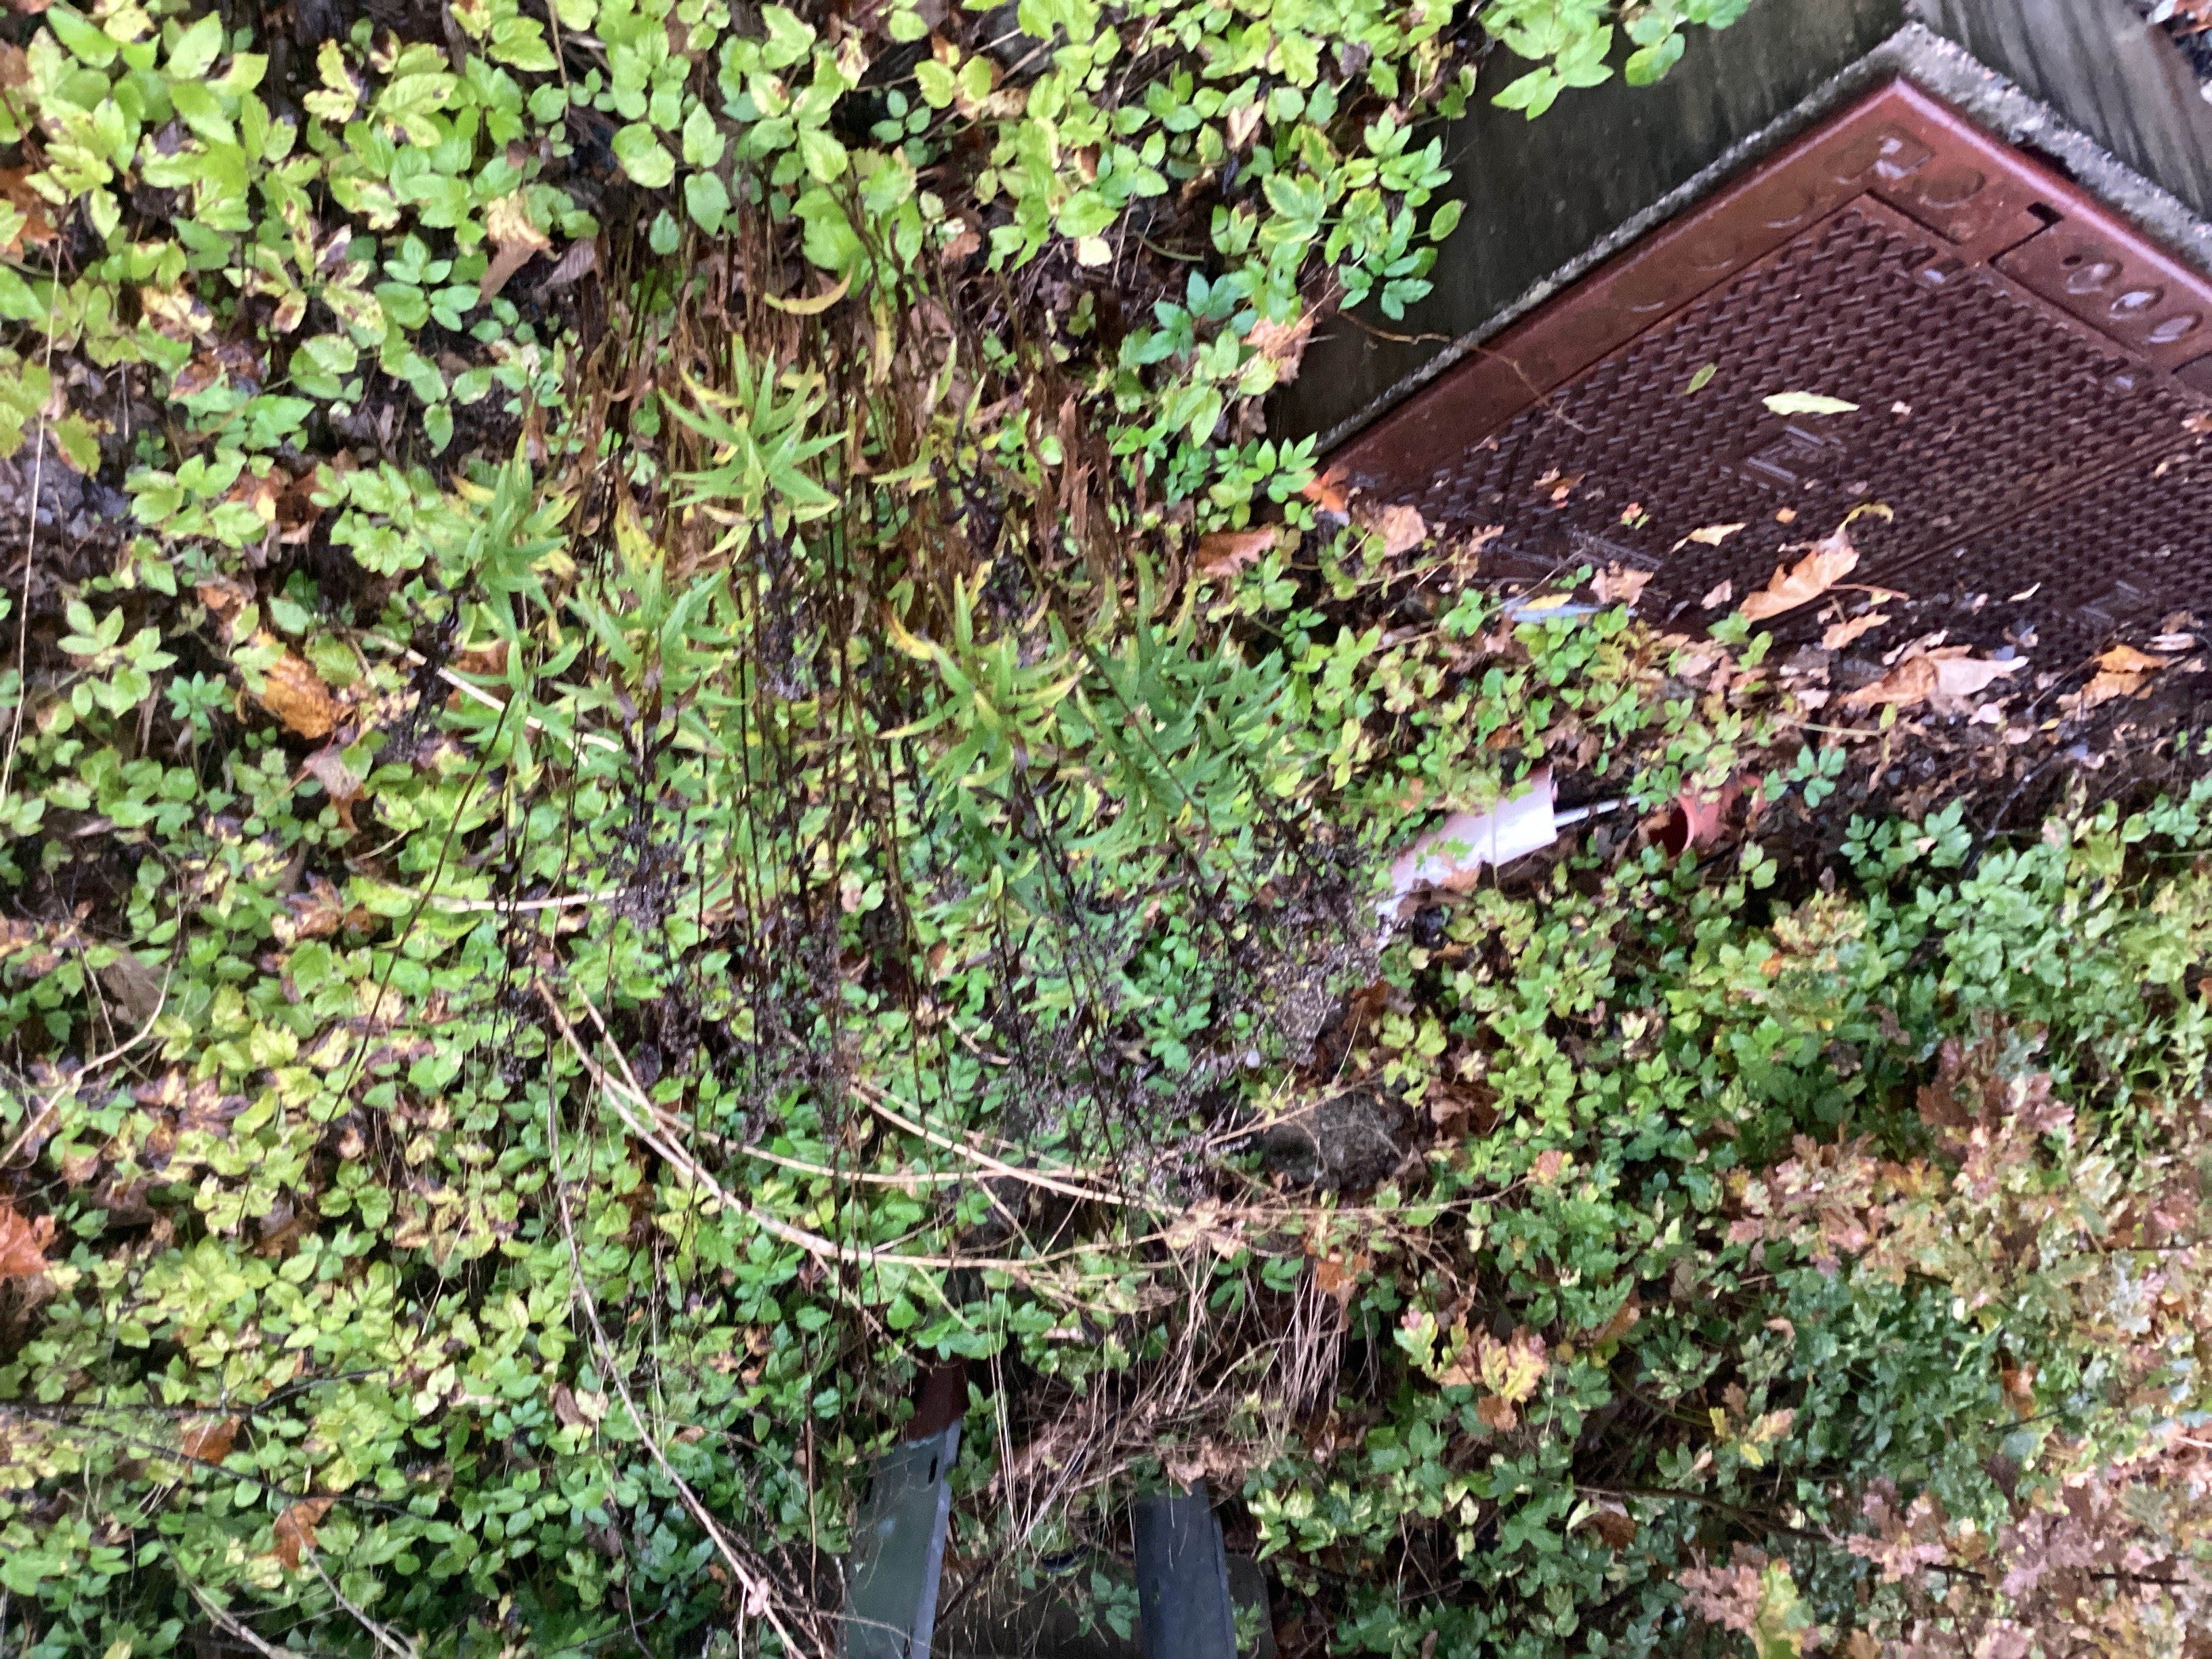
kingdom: Plantae
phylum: Tracheophyta
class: Magnoliopsida
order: Asterales
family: Asteraceae
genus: Solidago
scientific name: Solidago canadensis
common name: kanadagullris
